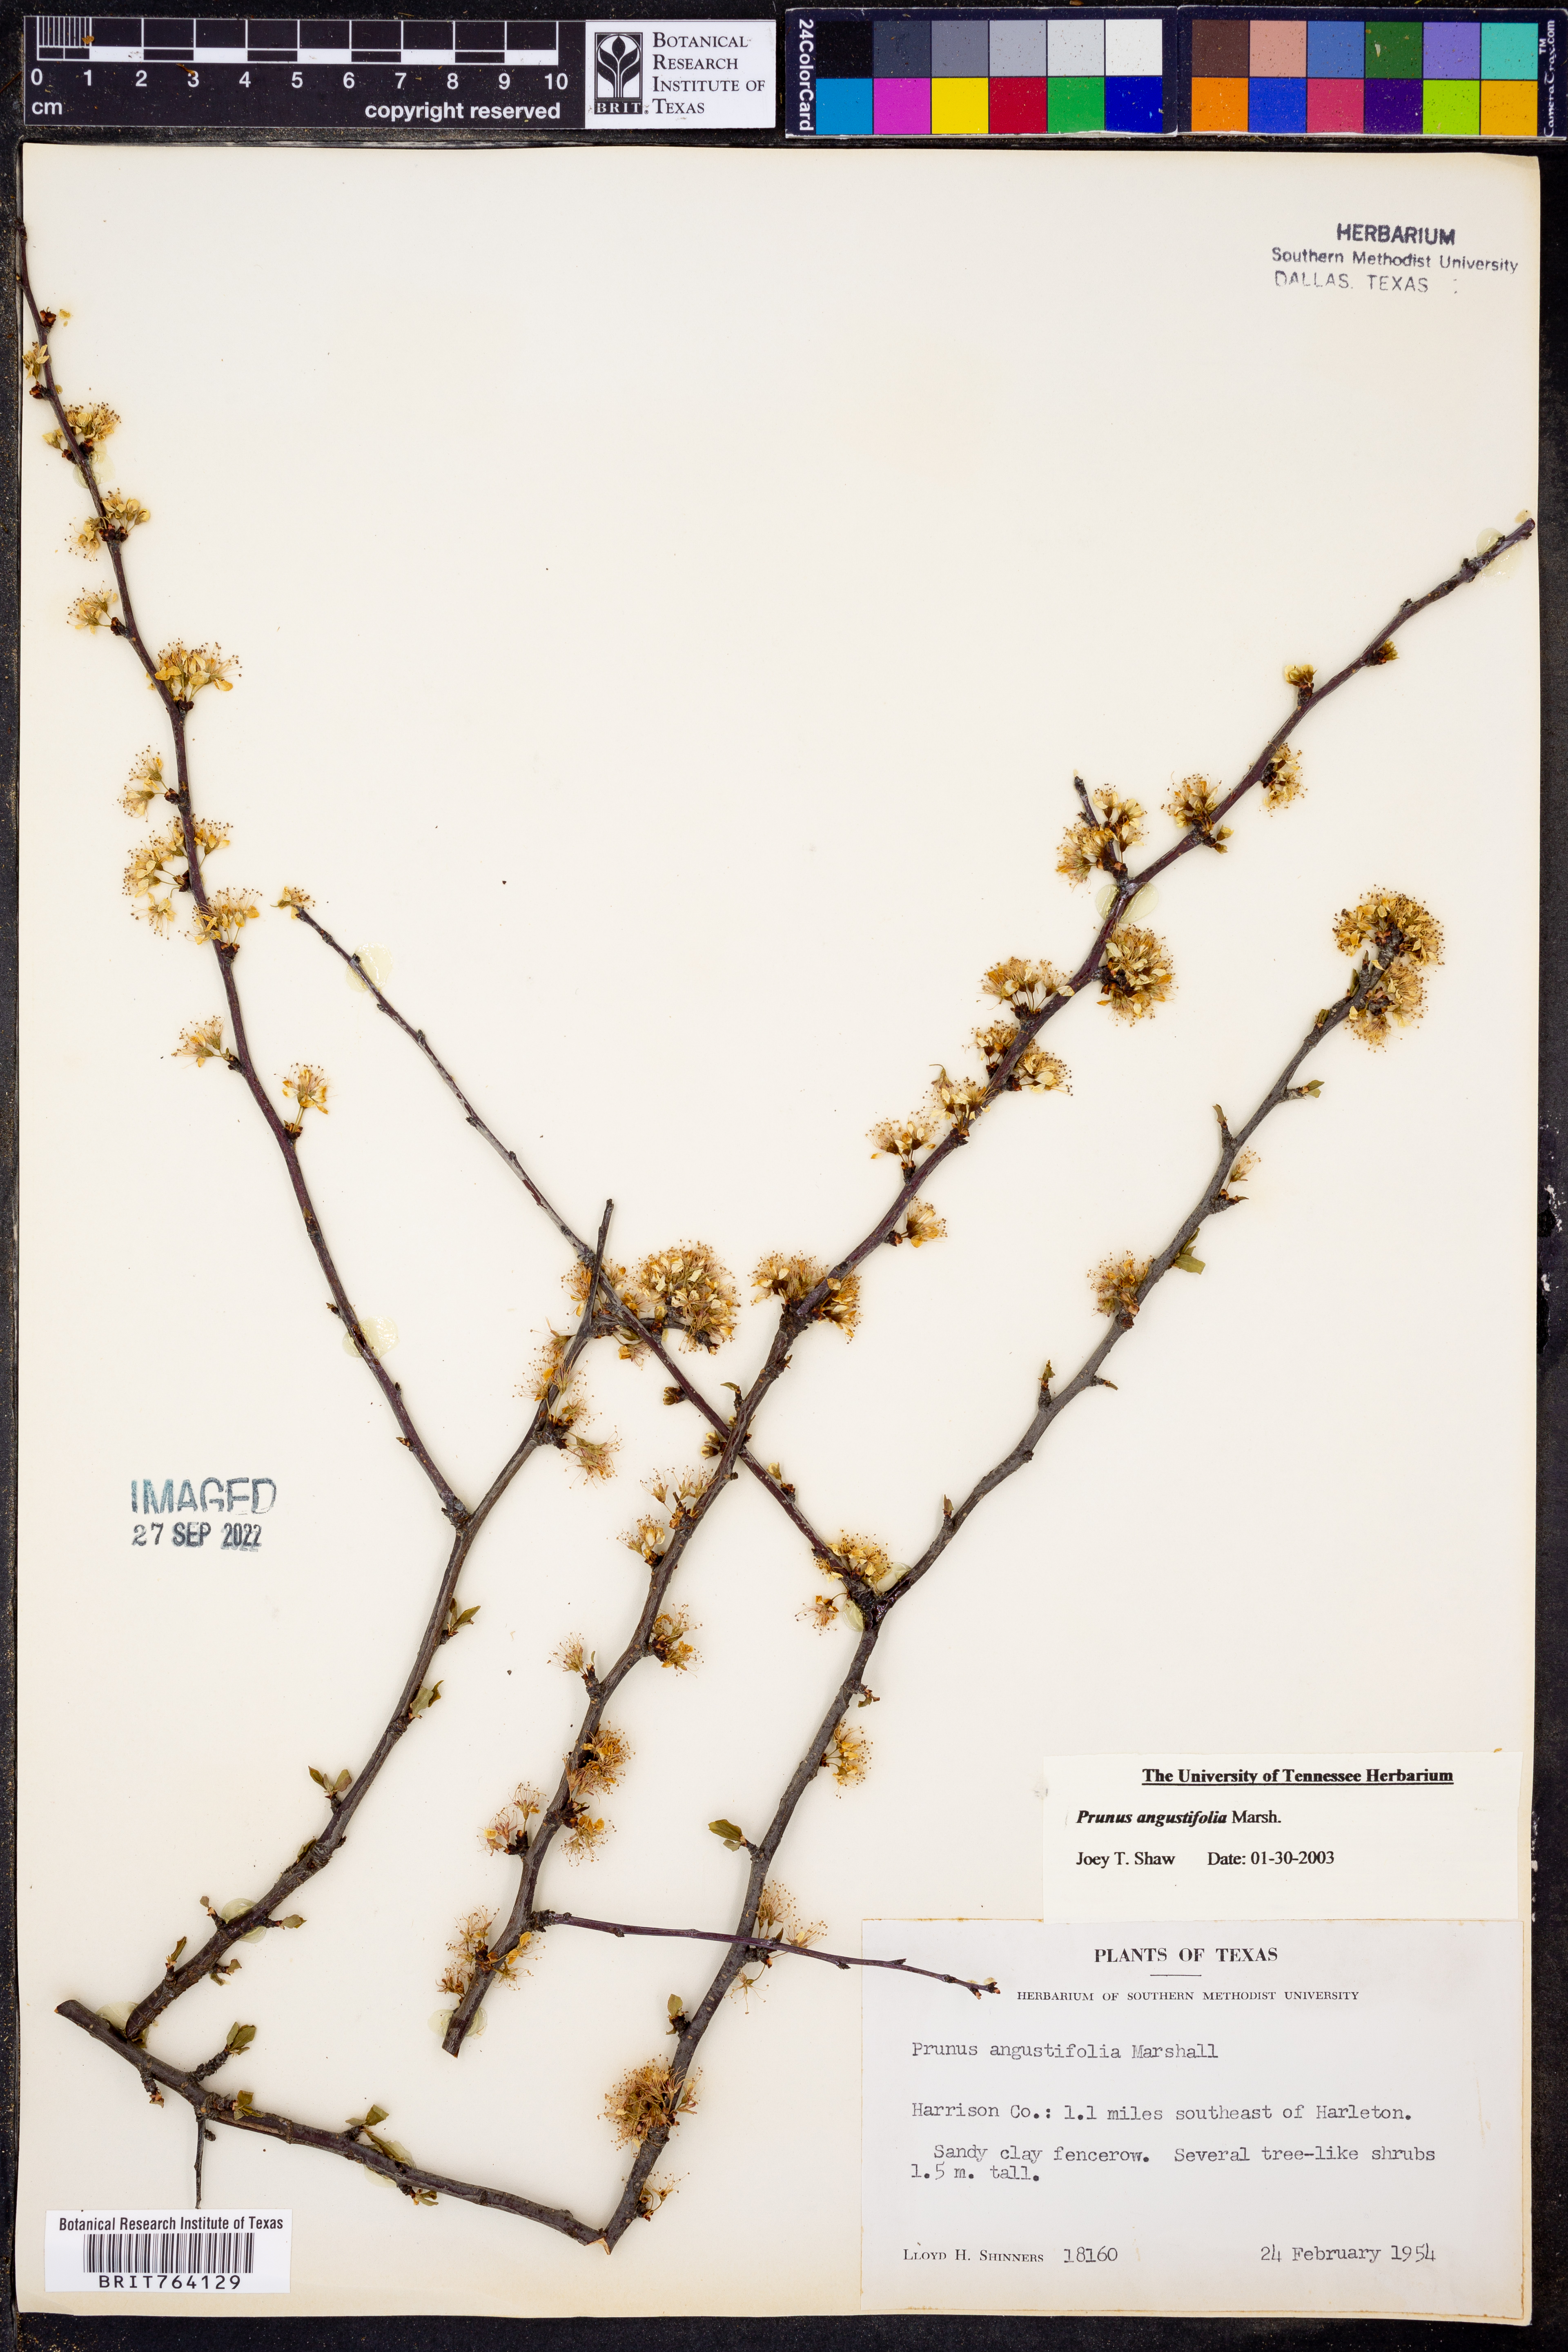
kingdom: Plantae
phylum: Tracheophyta
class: Magnoliopsida
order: Rosales
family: Rosaceae
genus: Prunus
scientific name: Prunus angustifolia
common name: Cherokee plum
